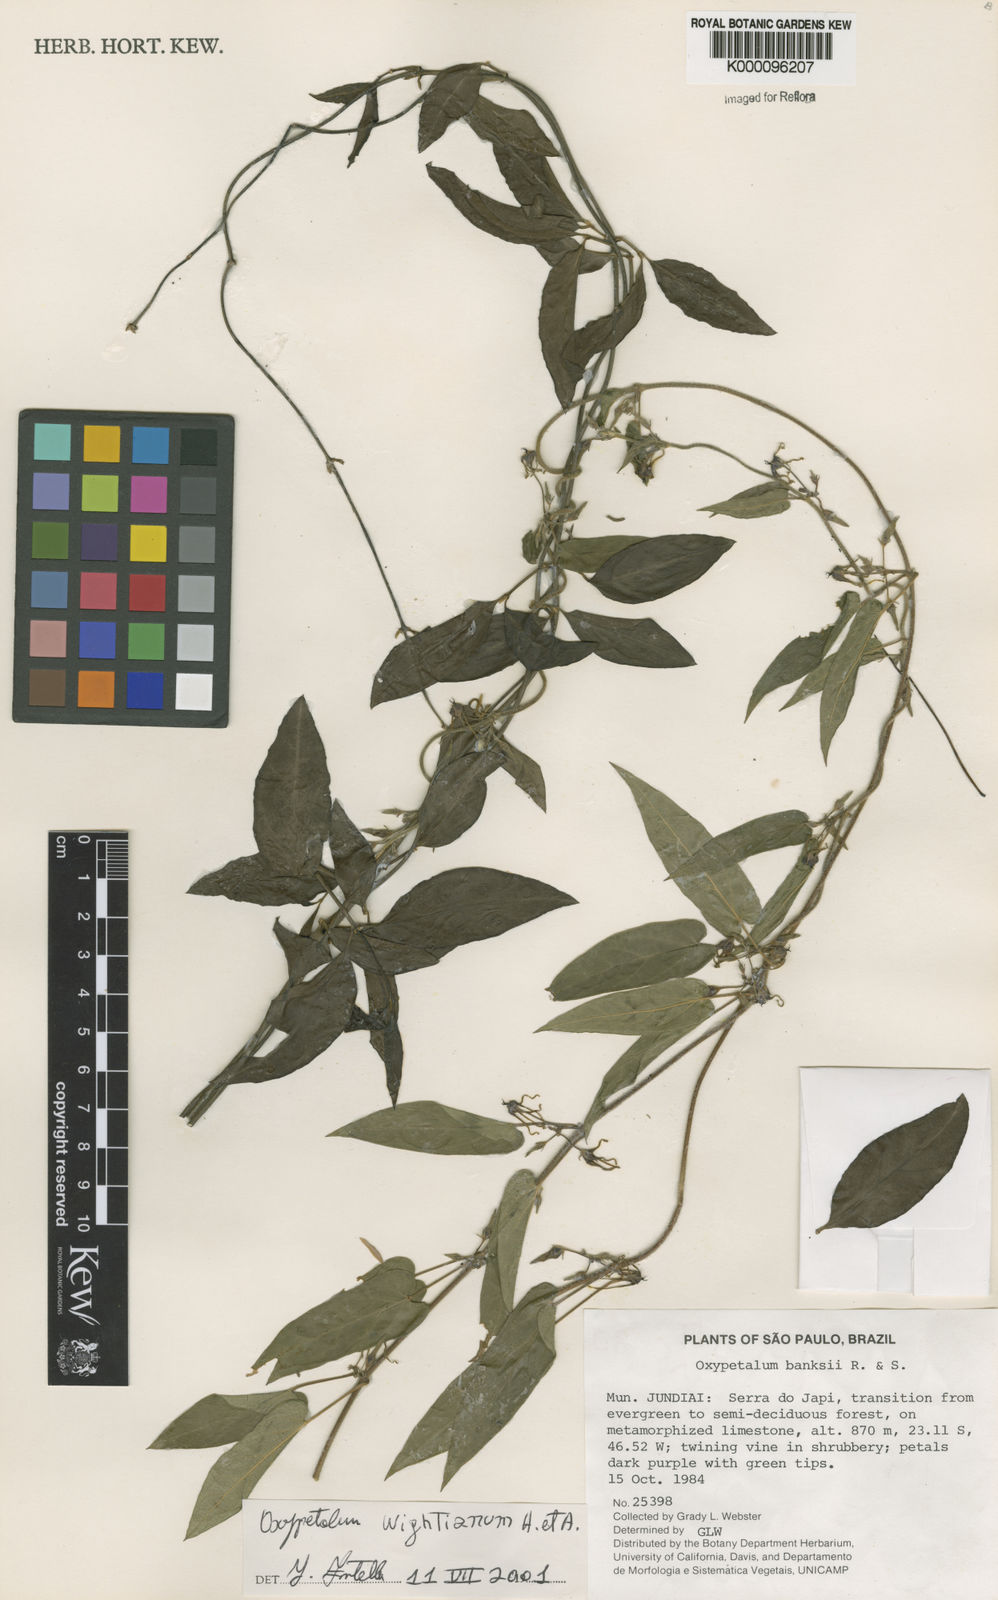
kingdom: Plantae
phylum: Tracheophyta
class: Magnoliopsida
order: Gentianales
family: Apocynaceae
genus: Oxypetalum
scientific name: Oxypetalum wightianum
